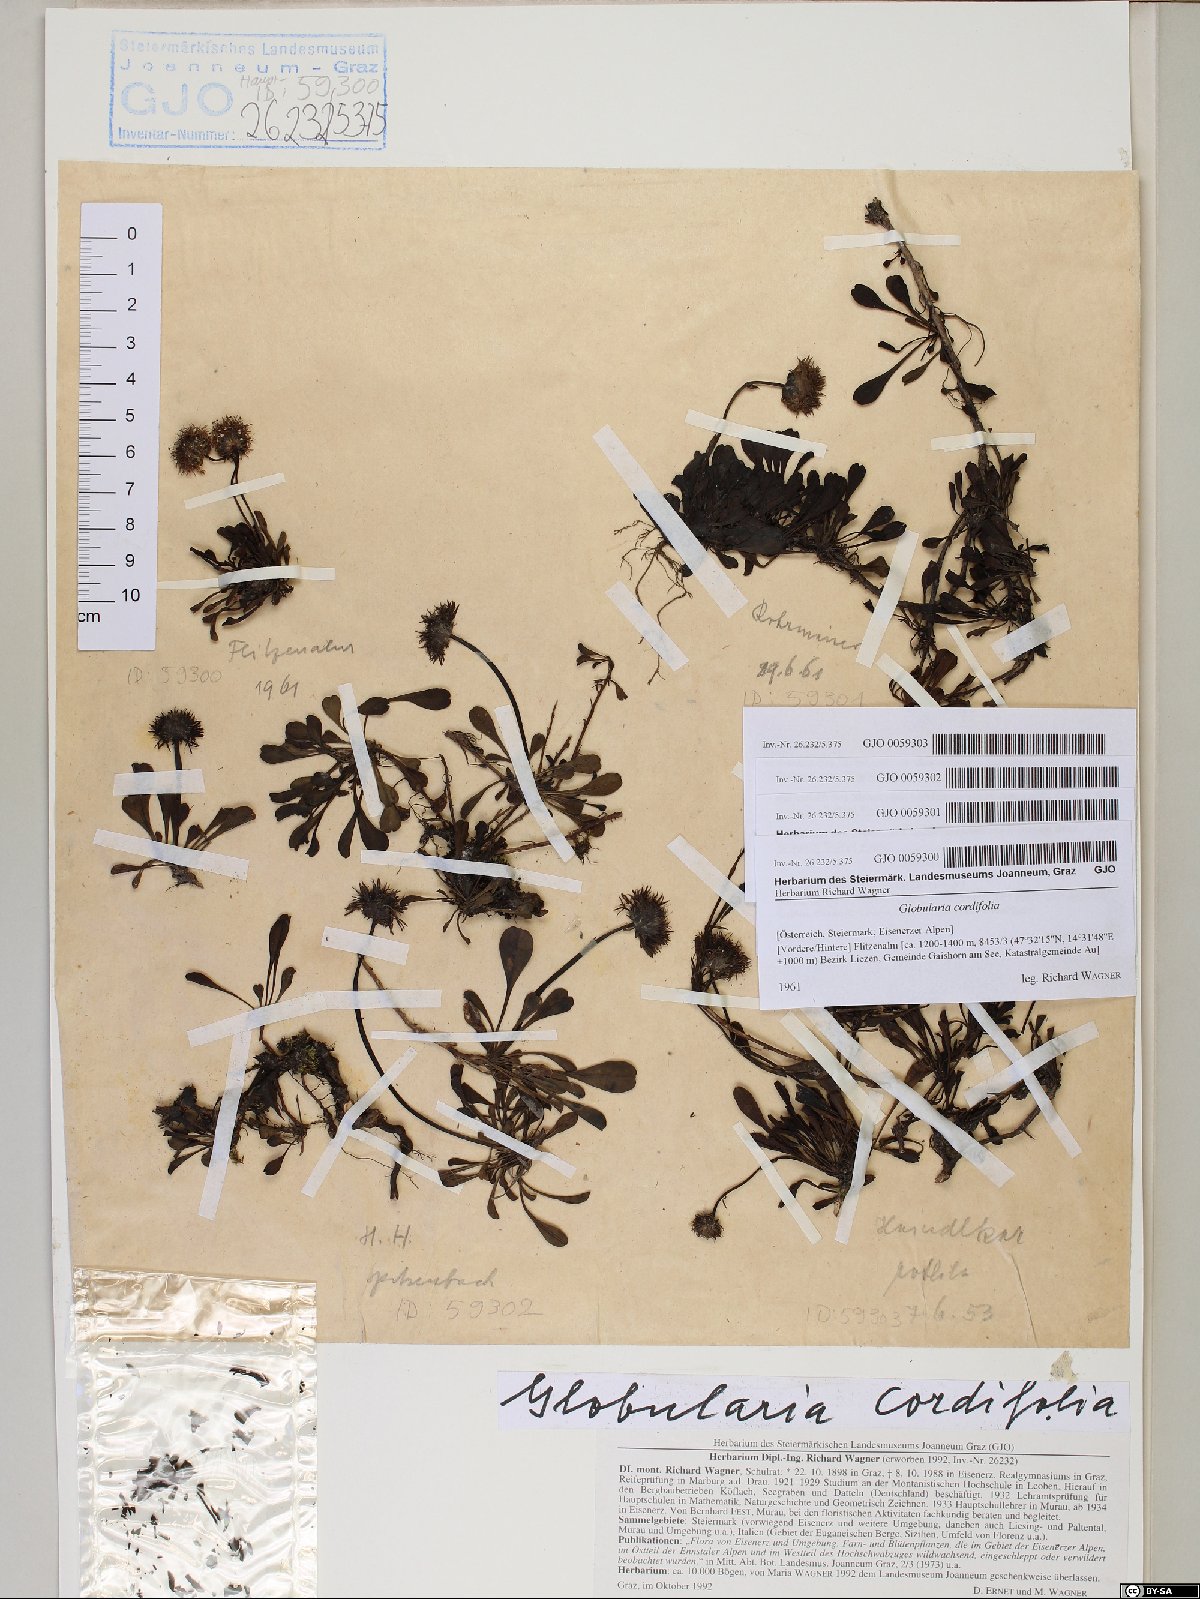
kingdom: Plantae
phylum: Tracheophyta
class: Magnoliopsida
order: Lamiales
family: Plantaginaceae
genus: Globularia
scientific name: Globularia cordifolia
